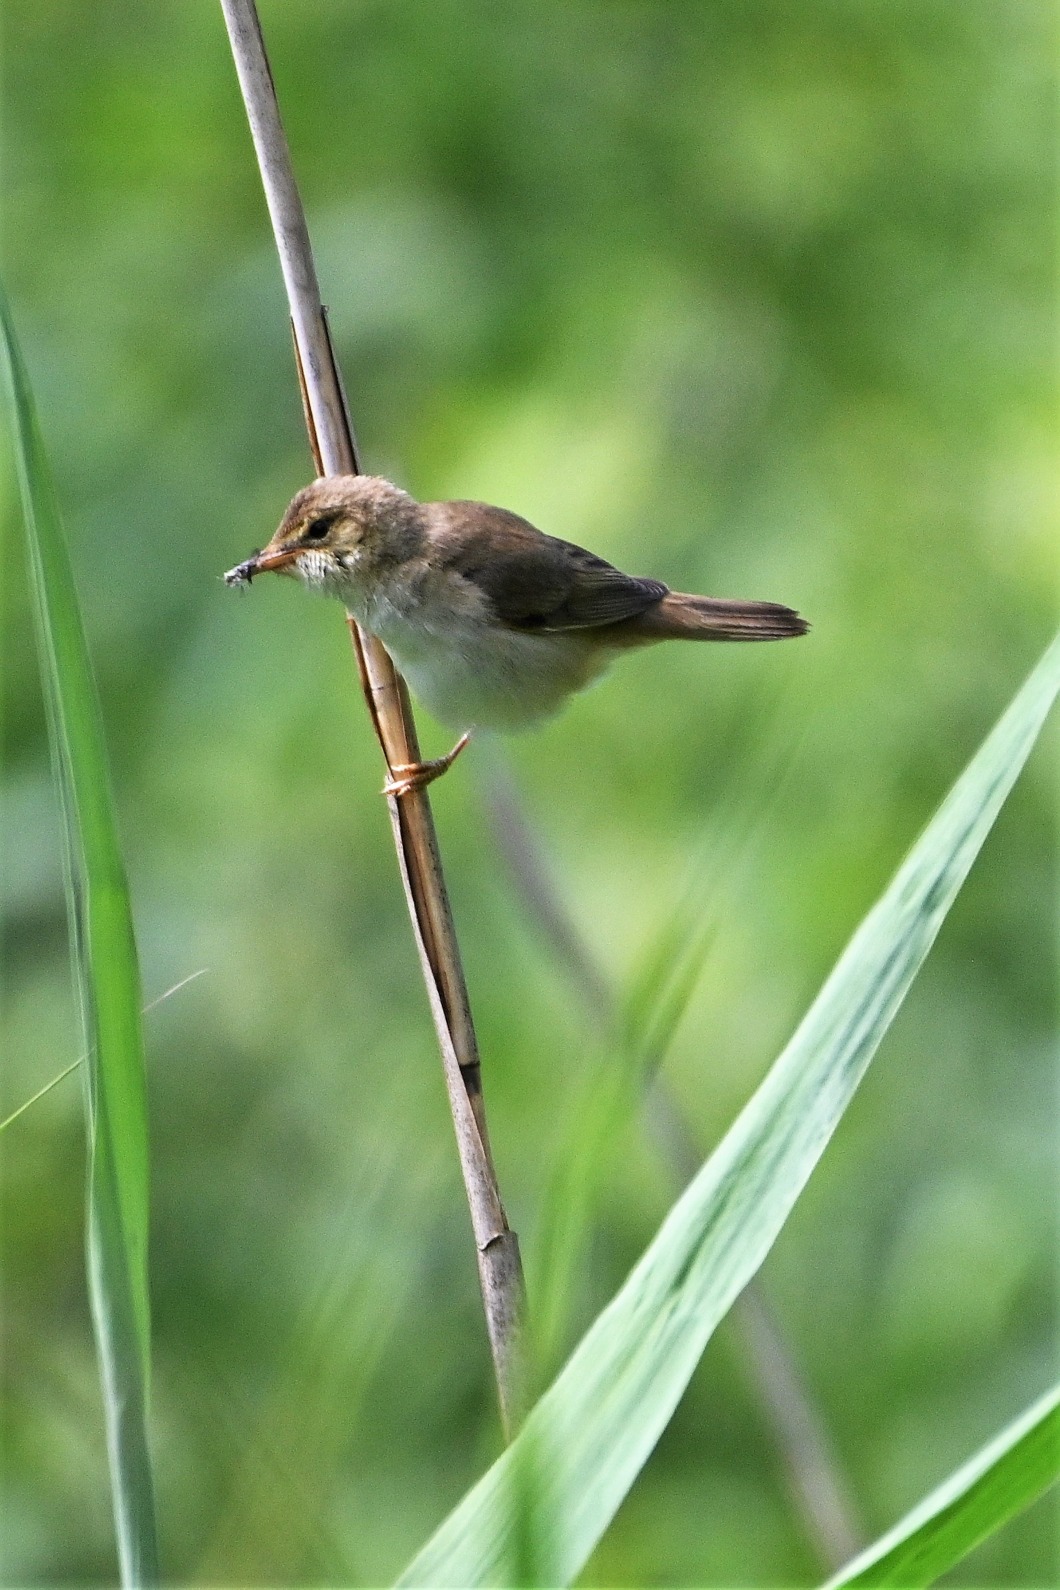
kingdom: Animalia
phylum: Chordata
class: Aves
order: Passeriformes
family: Acrocephalidae
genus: Acrocephalus
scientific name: Acrocephalus scirpaceus
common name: Rørsanger
